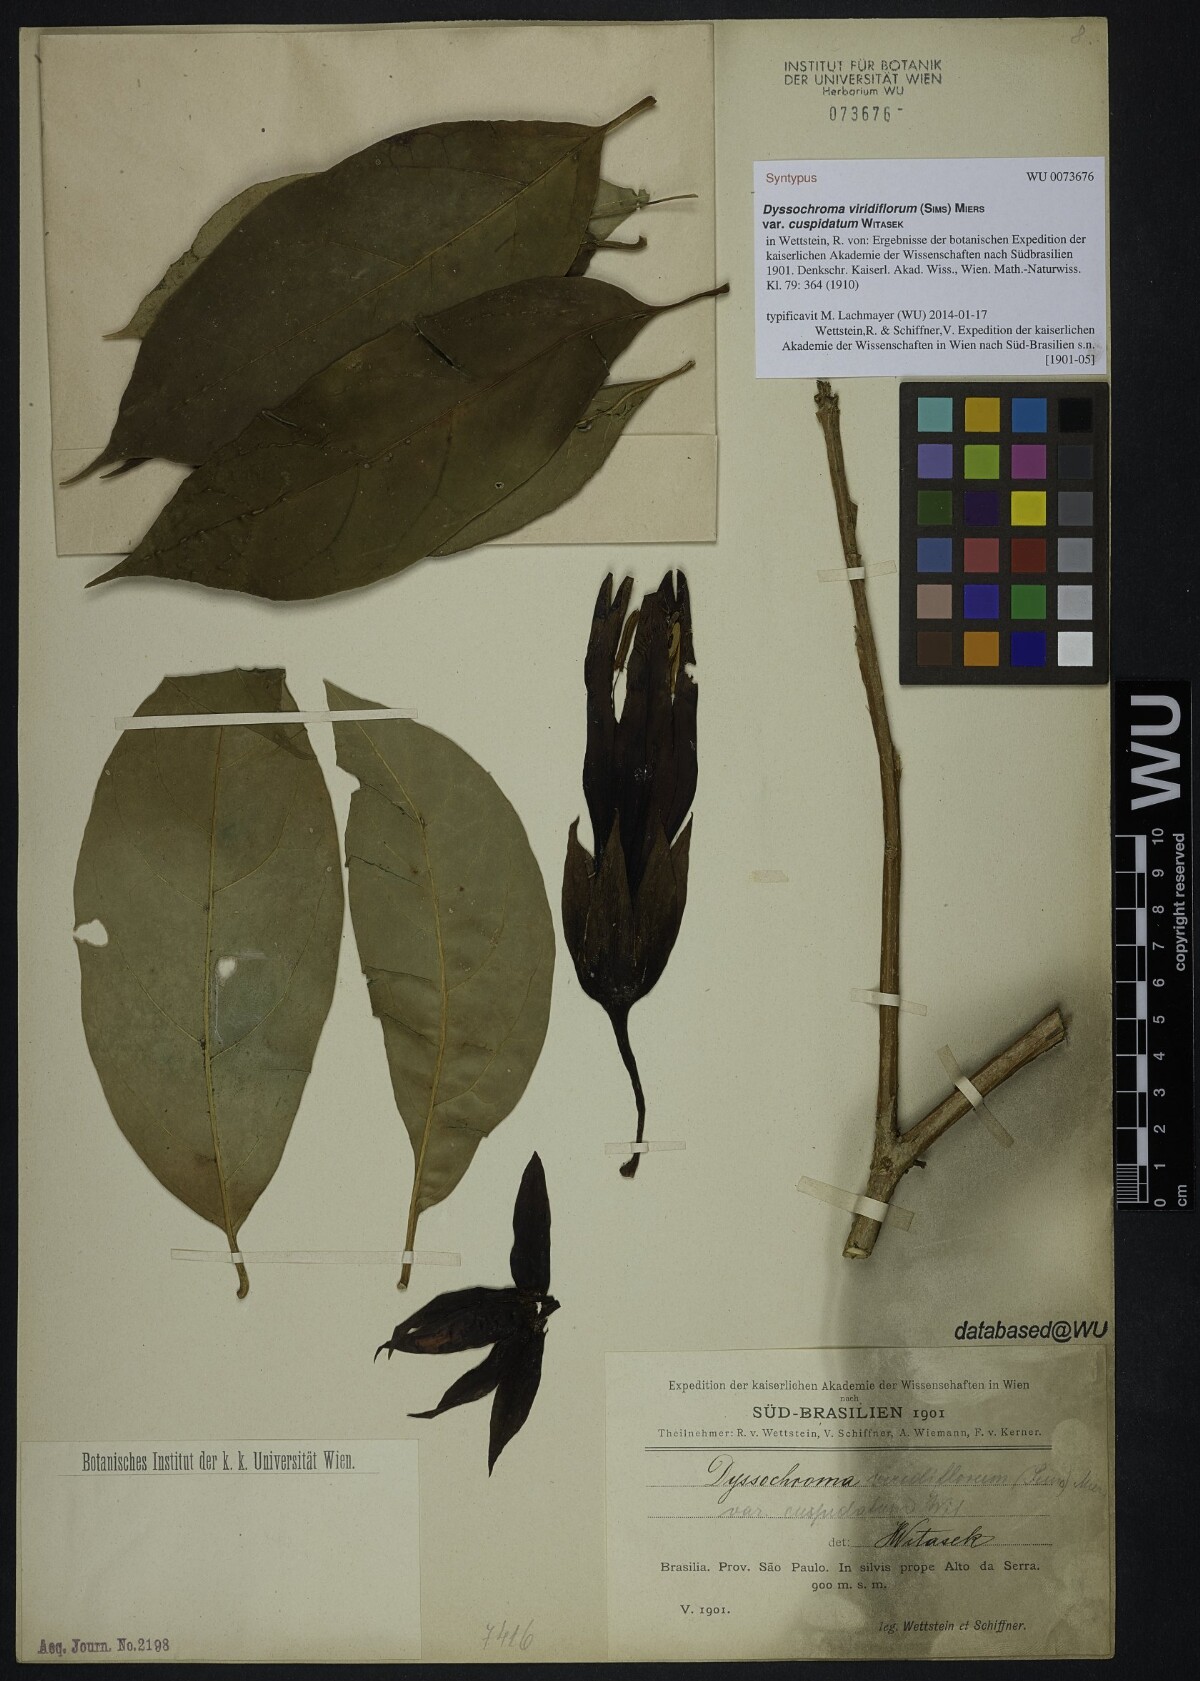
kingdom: Plantae
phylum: Tracheophyta
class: Magnoliopsida
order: Solanales
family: Solanaceae
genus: Dyssochroma
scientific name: Dyssochroma viridiflorum
